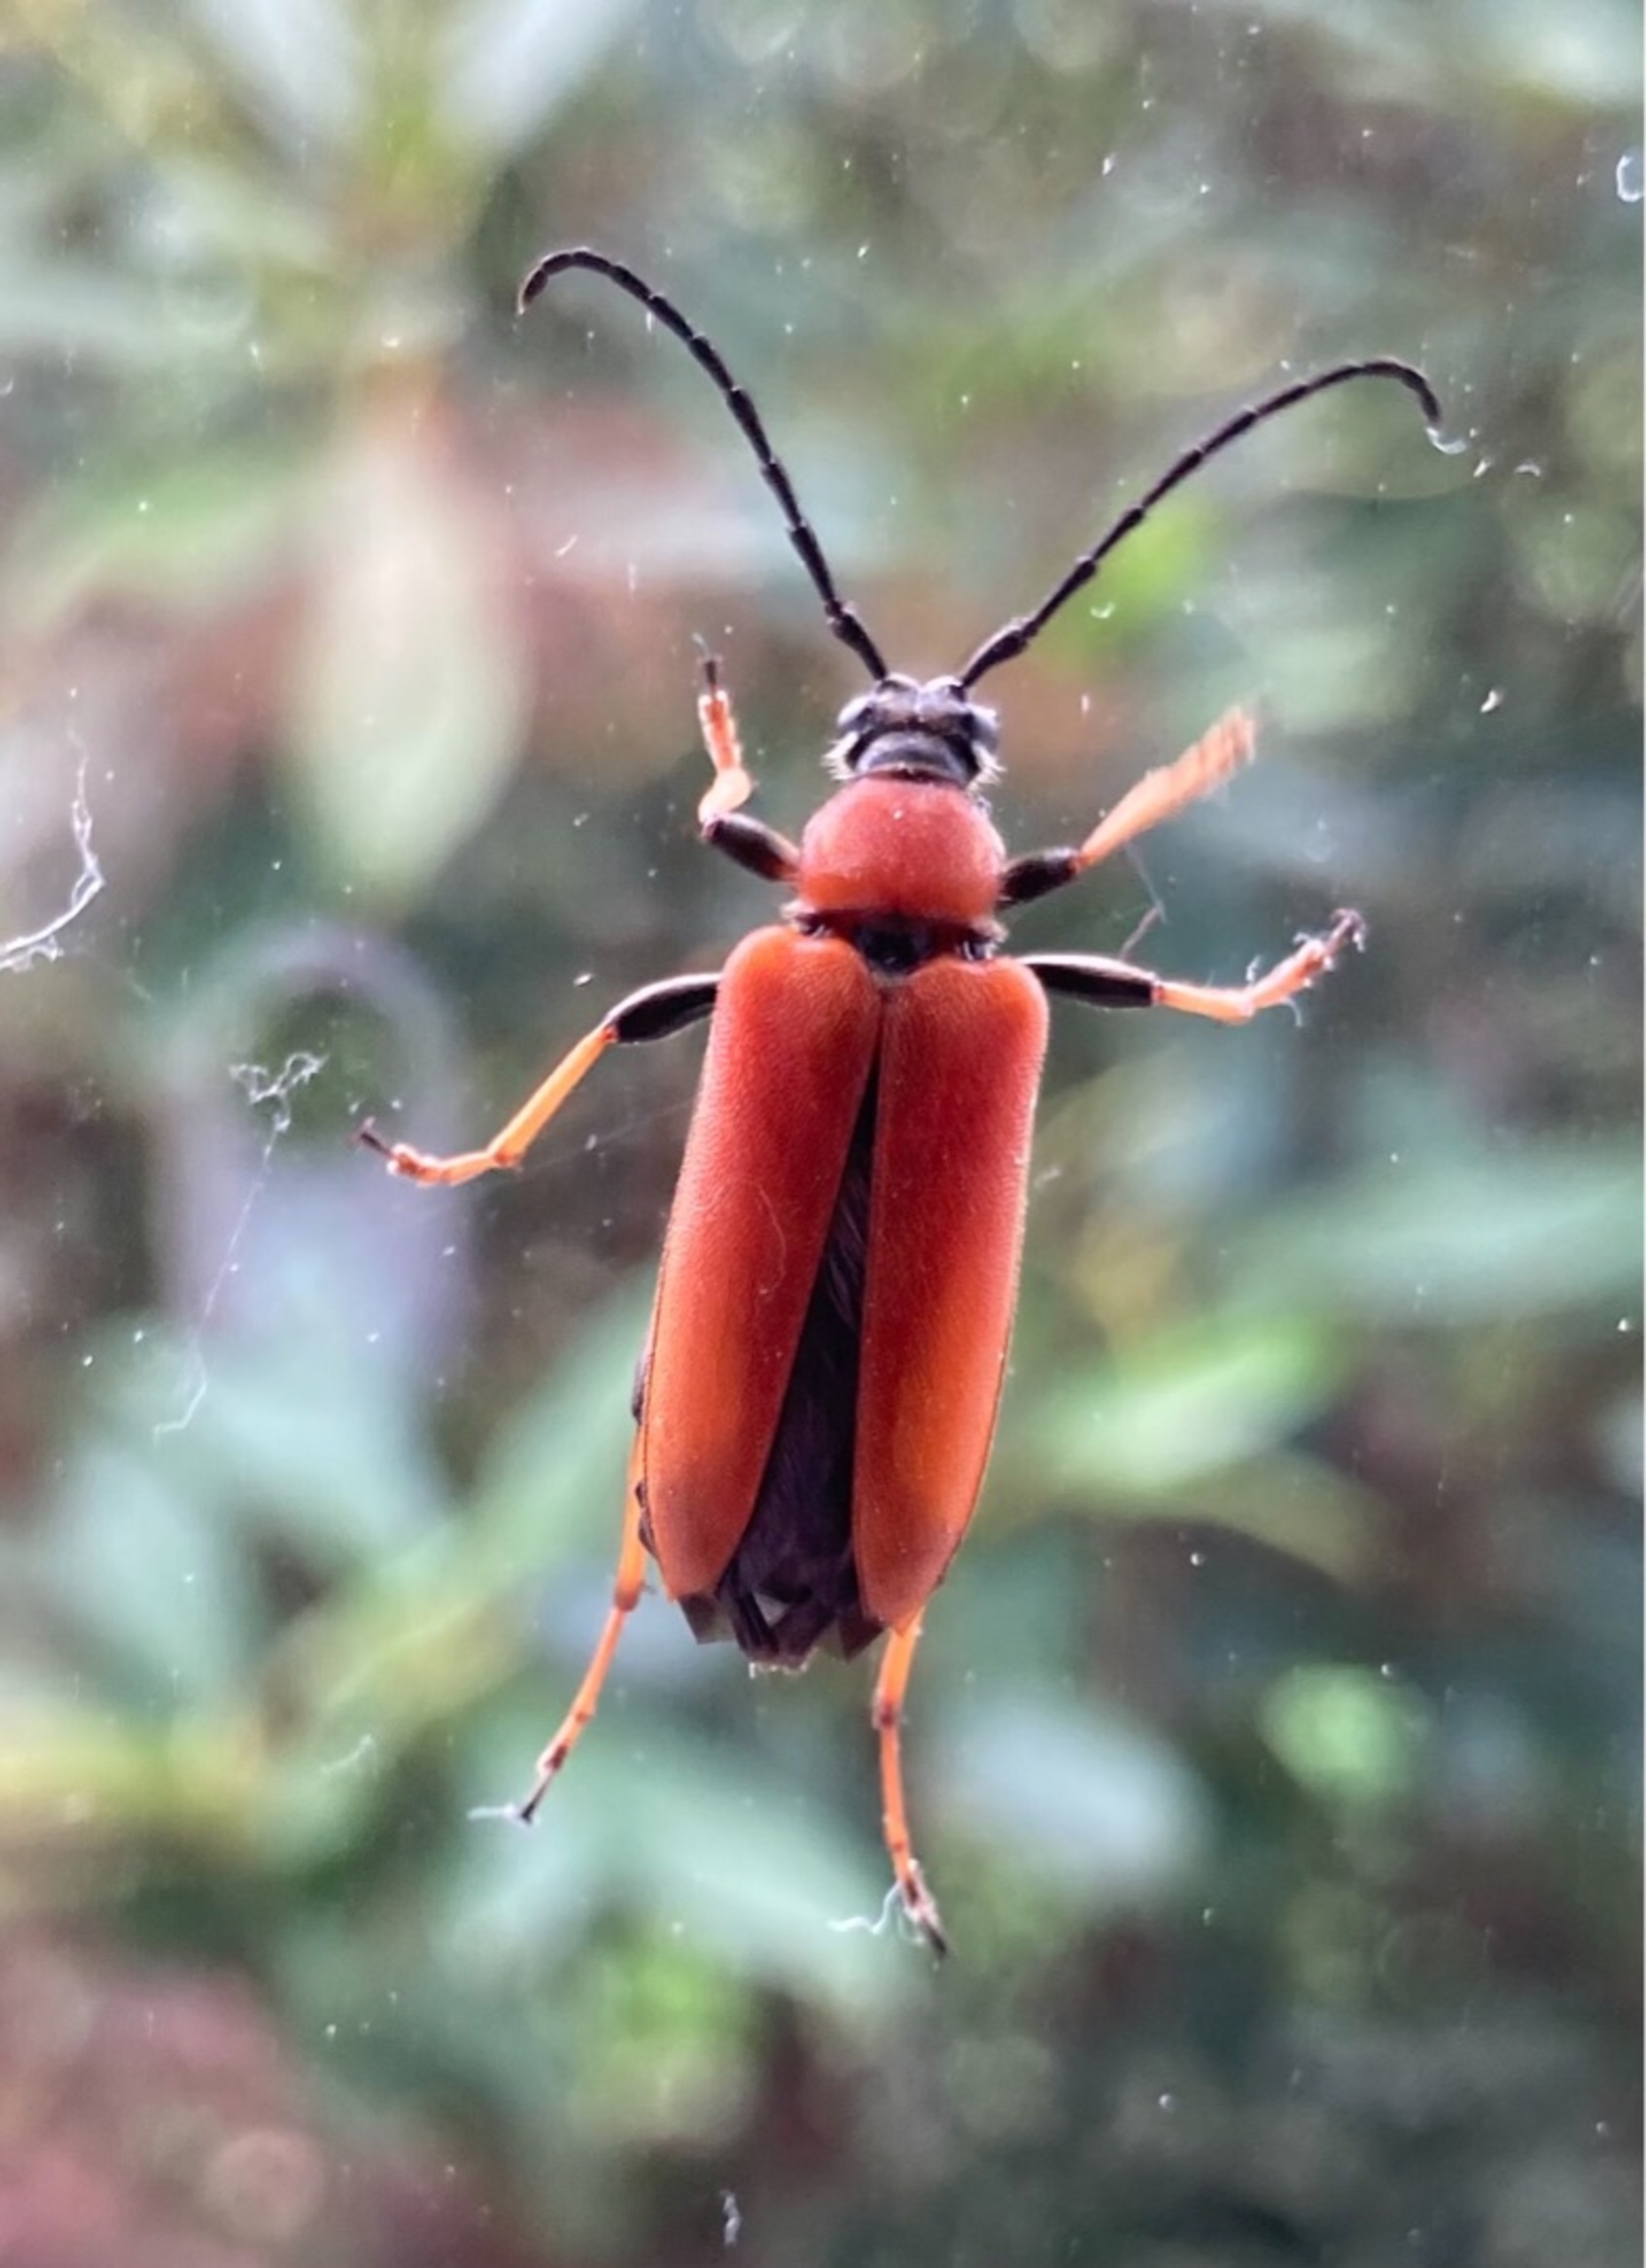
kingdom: Animalia
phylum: Arthropoda
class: Insecta
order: Coleoptera
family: Cerambycidae
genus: Stictoleptura
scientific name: Stictoleptura rubra
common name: Rød blomsterbuk
